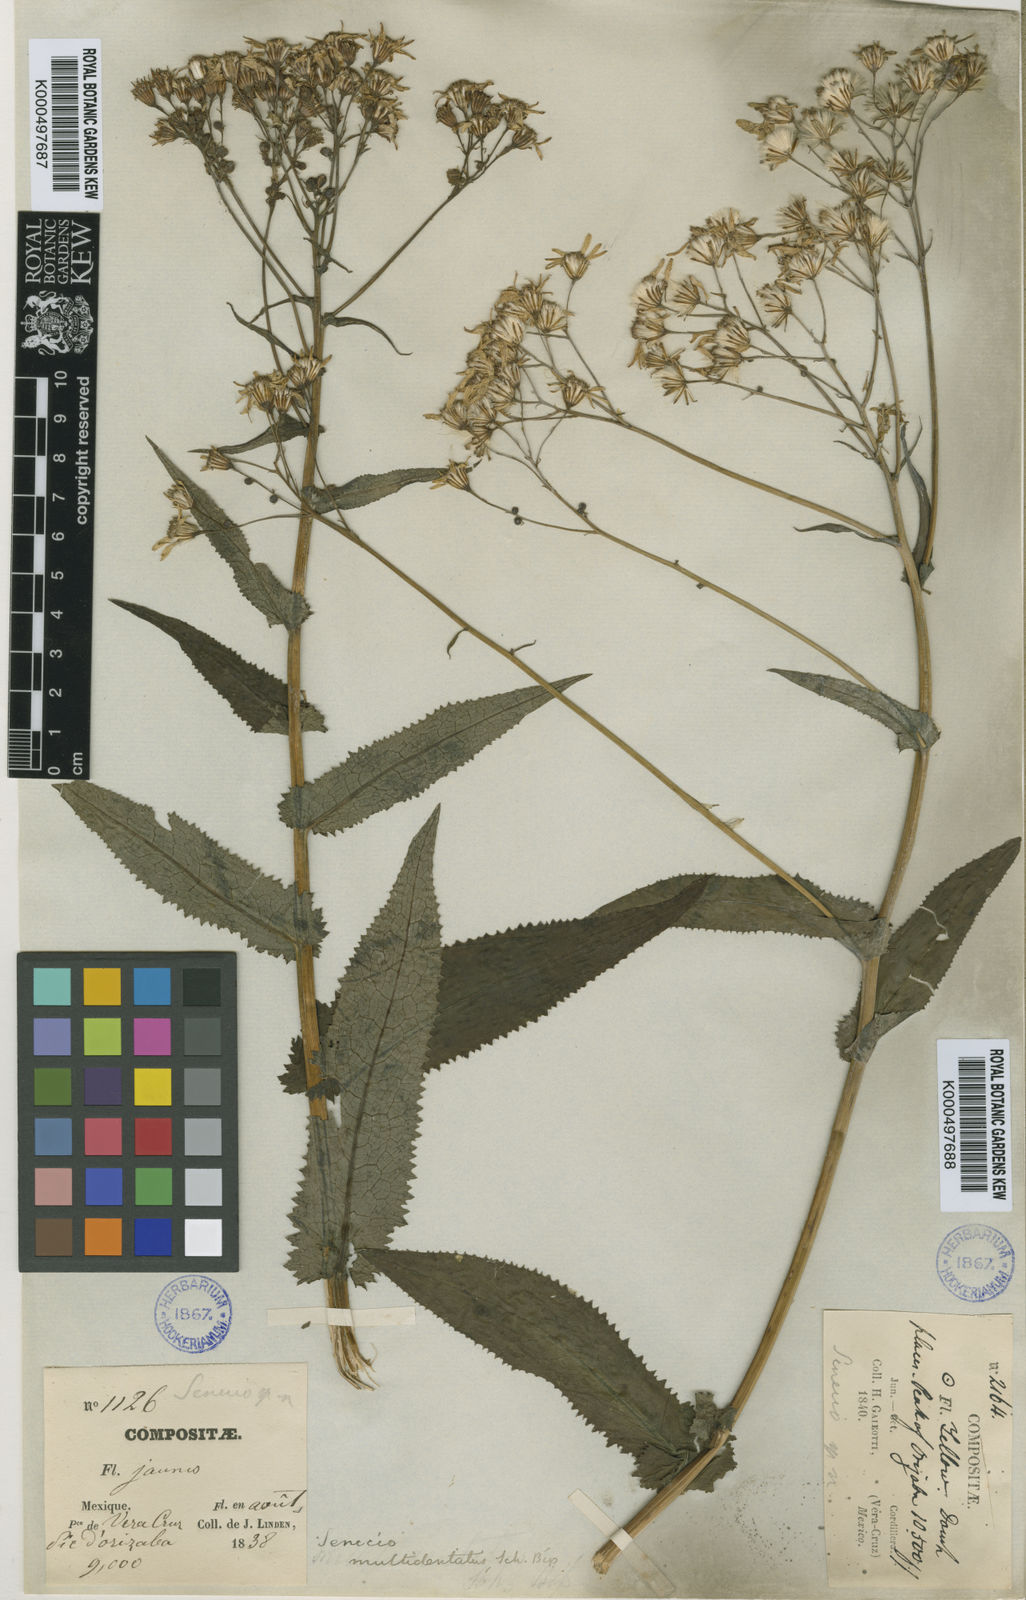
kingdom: Plantae
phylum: Tracheophyta
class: Magnoliopsida
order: Asterales
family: Asteraceae
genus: Senecio
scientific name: Senecio multidentatus
